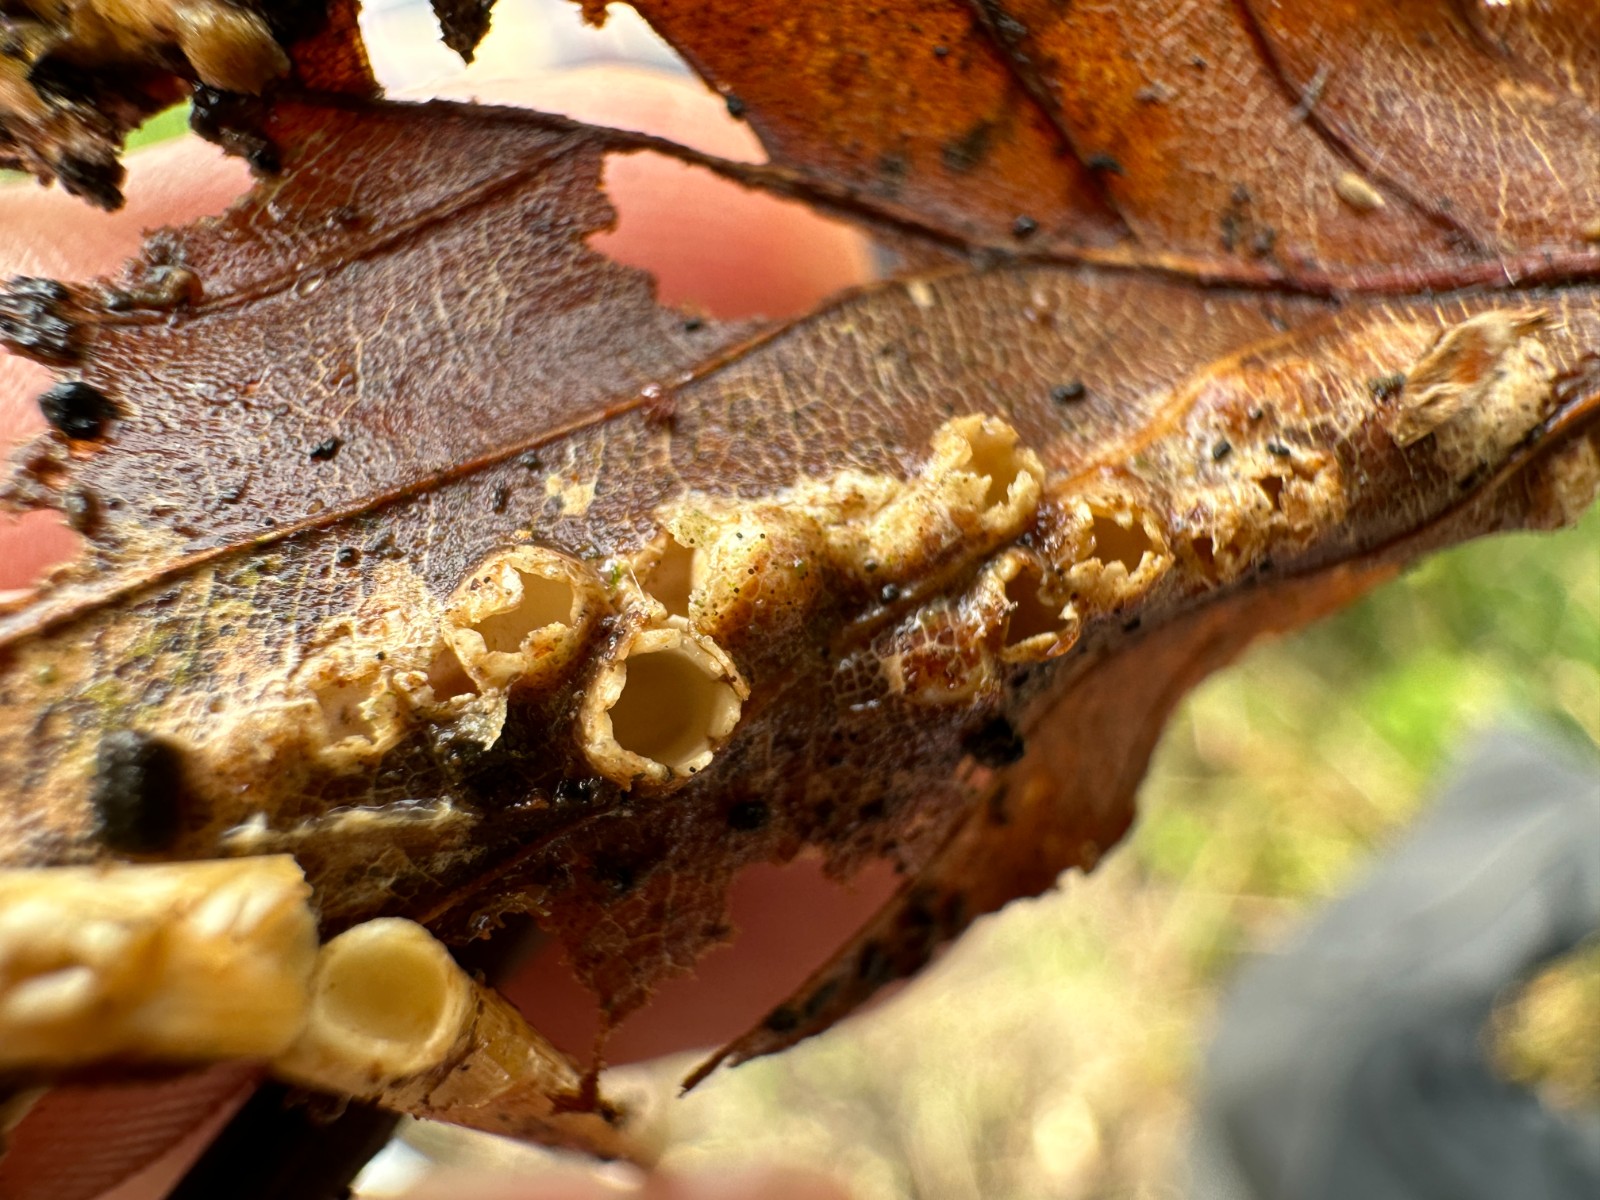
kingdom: Fungi
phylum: Basidiomycota
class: Agaricomycetes
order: Geastrales
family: Geastraceae
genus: Sphaerobolus
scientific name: Sphaerobolus stellatus
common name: bombekaster
